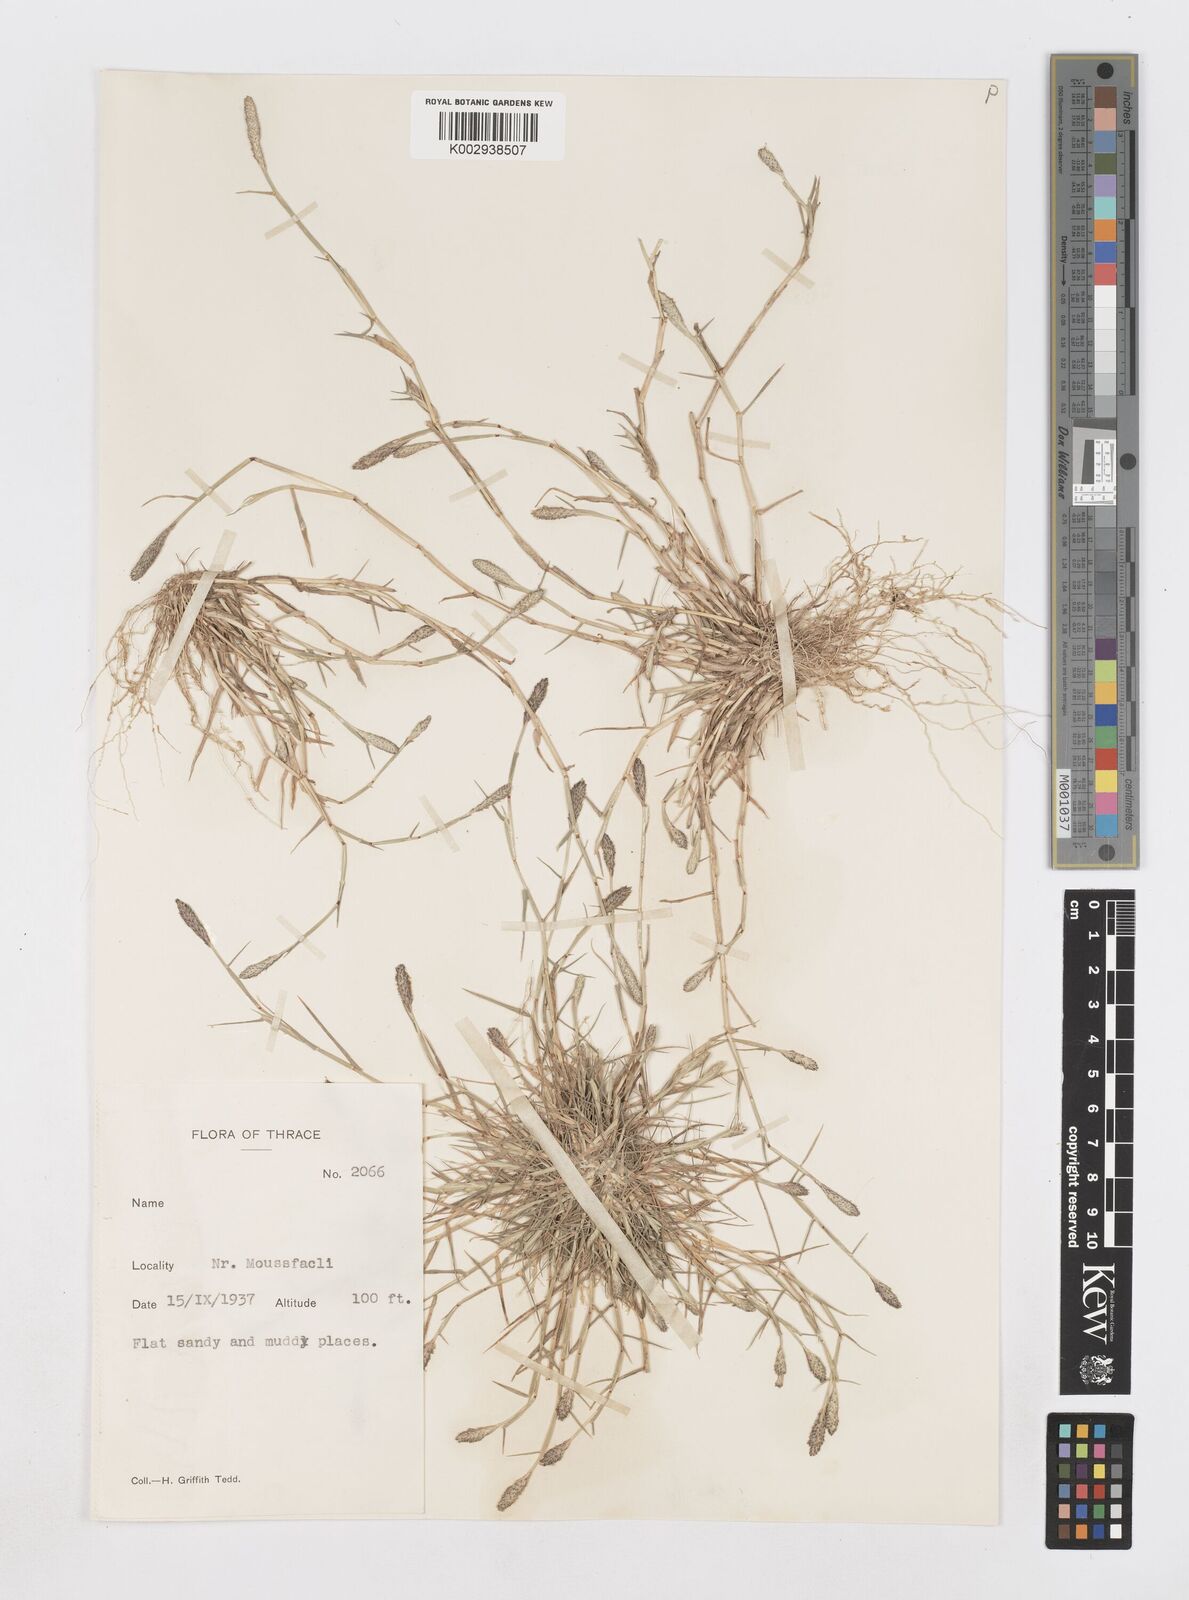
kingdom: Plantae
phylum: Tracheophyta
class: Liliopsida
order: Poales
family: Poaceae
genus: Sporobolus
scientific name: Sporobolus alopecuroides
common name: Foxtail pricklegrass
